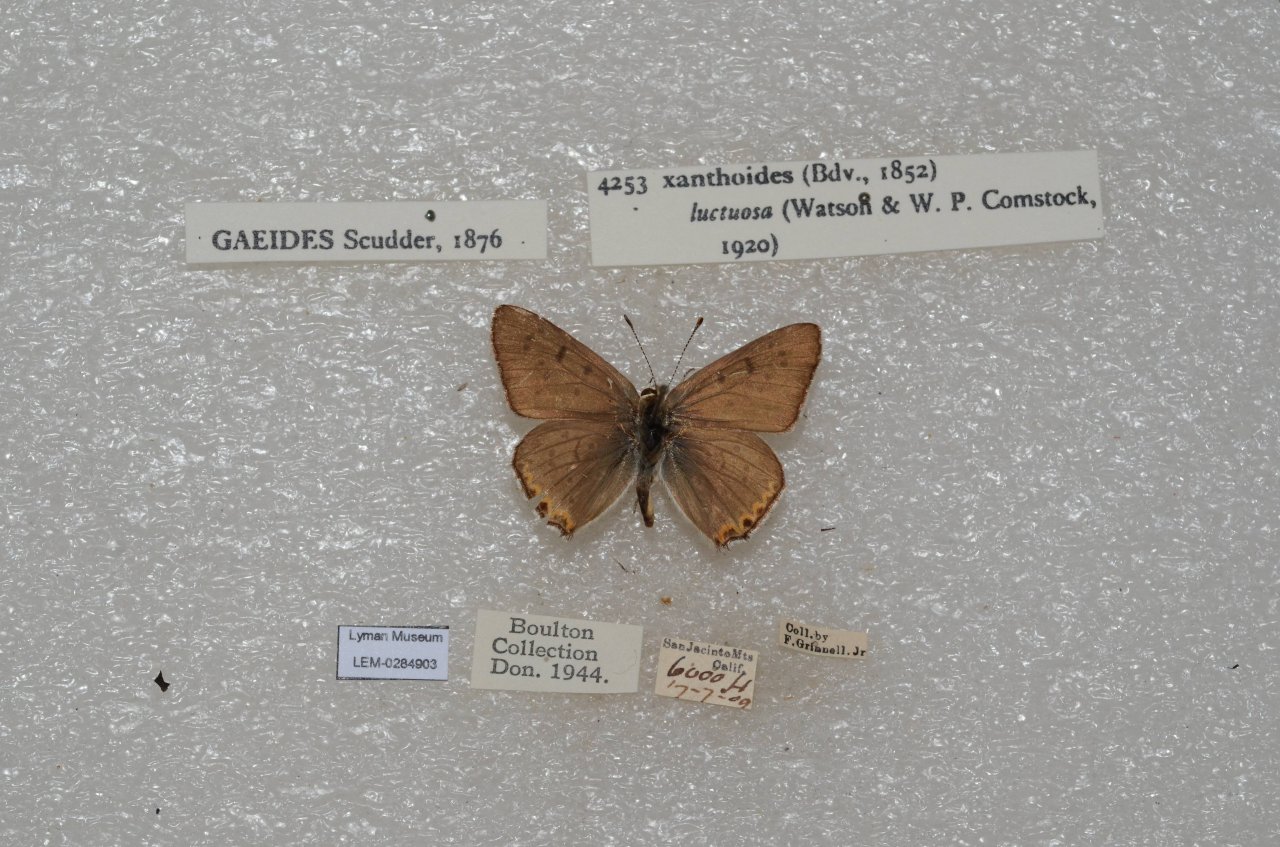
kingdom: Animalia
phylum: Arthropoda
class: Insecta
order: Lepidoptera
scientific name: Lepidoptera
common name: Butterflies
